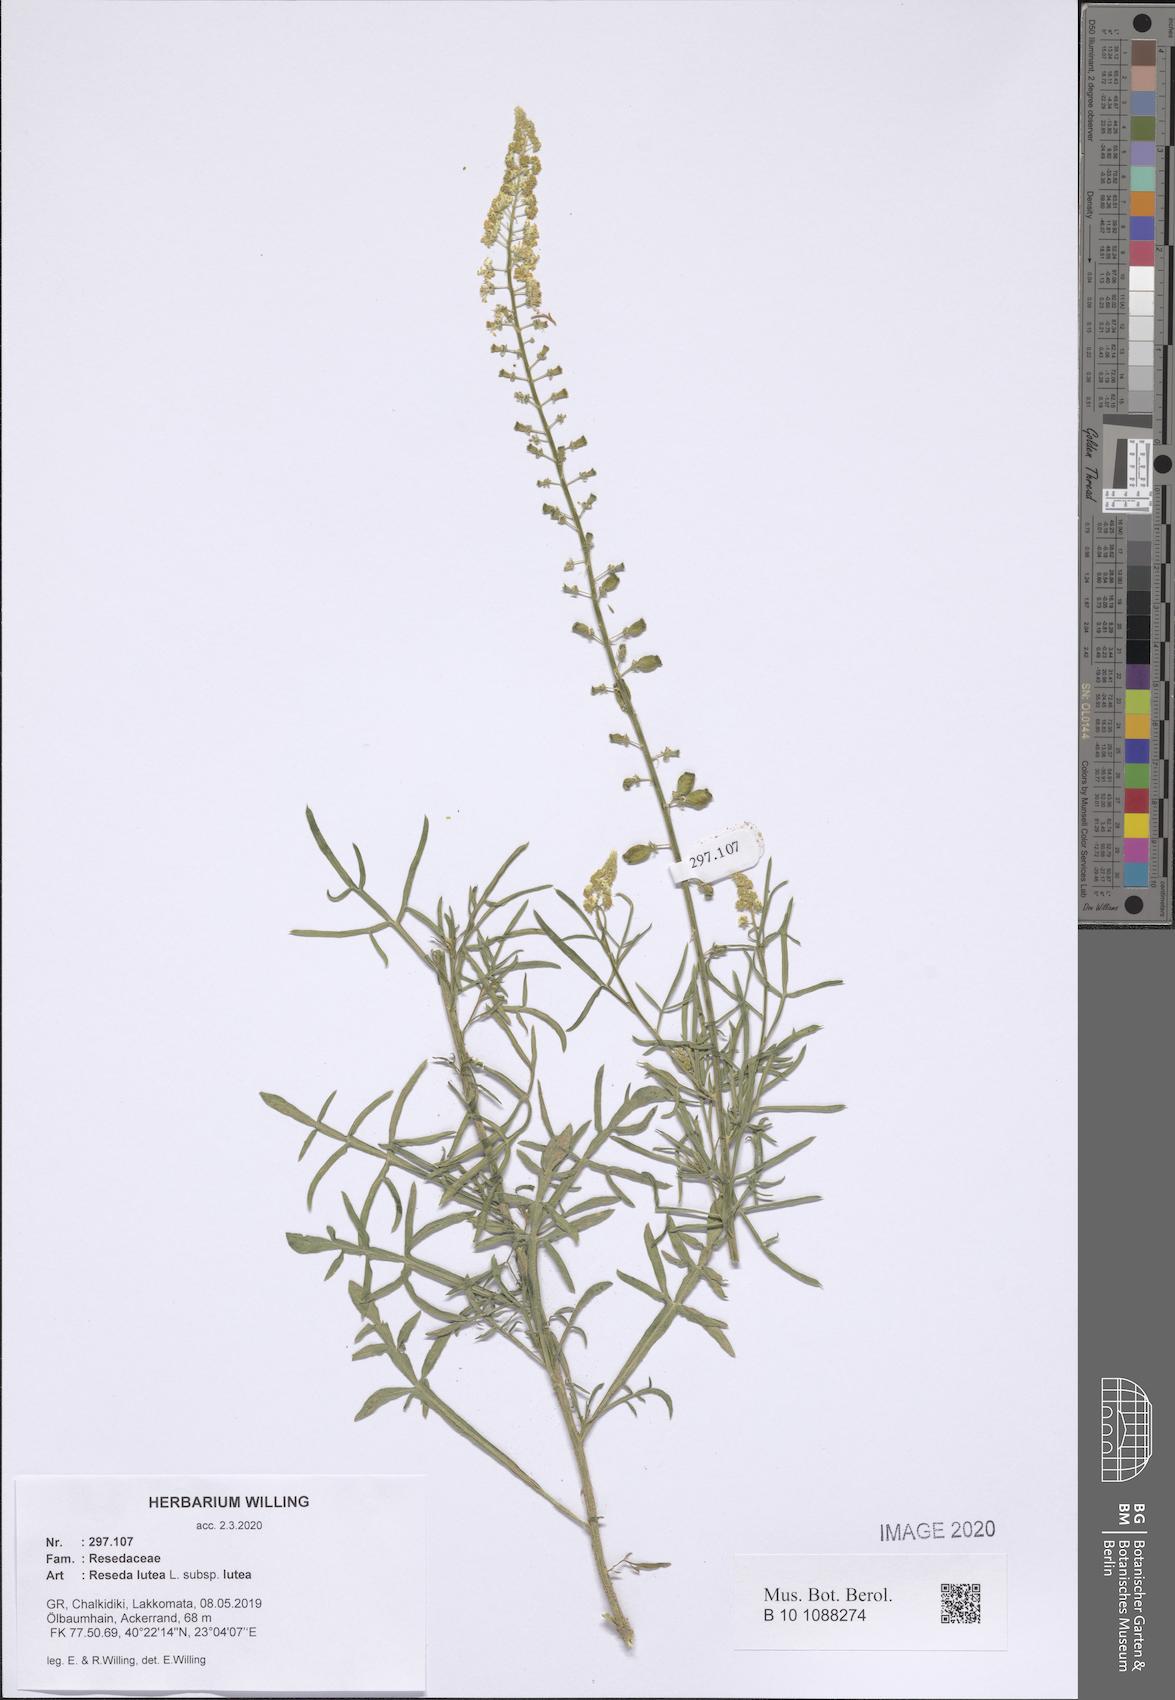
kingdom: Plantae
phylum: Tracheophyta
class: Magnoliopsida
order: Brassicales
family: Resedaceae
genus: Reseda
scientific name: Reseda lutea
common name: Wild mignonette
